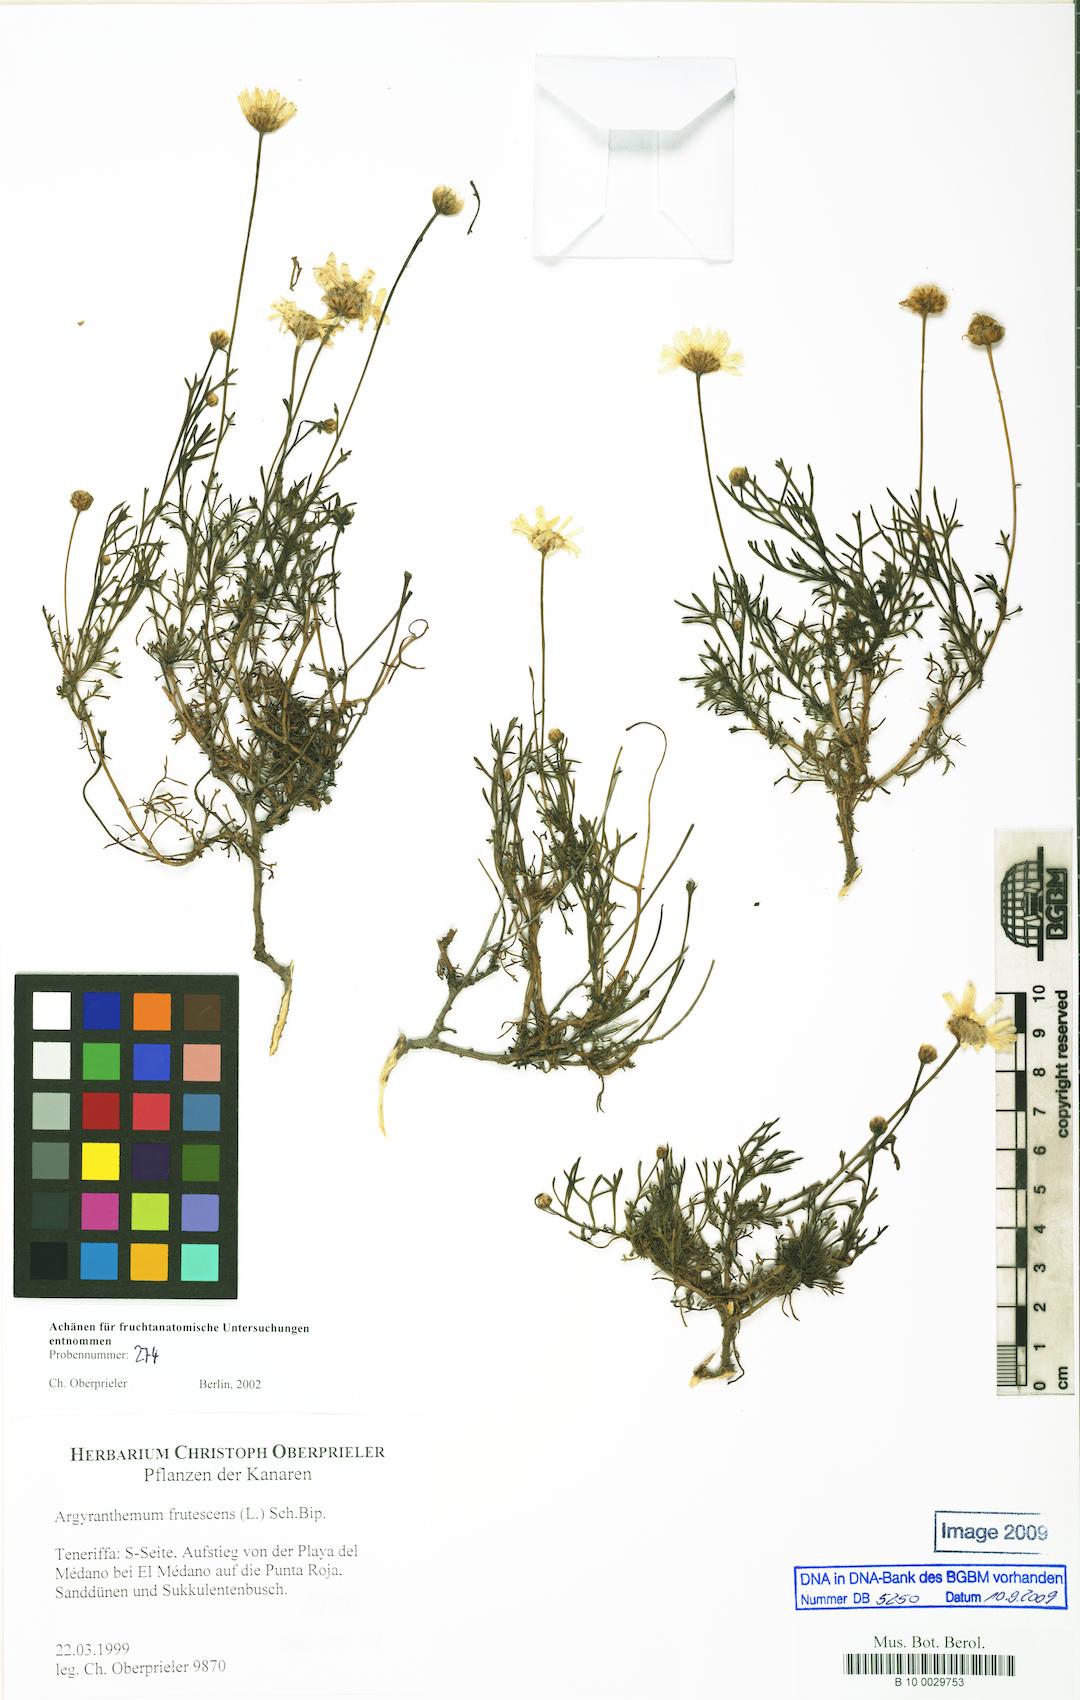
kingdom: Plantae
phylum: Tracheophyta
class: Magnoliopsida
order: Asterales
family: Asteraceae
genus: Argyranthemum
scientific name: Argyranthemum frutescens
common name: Paris daisy
